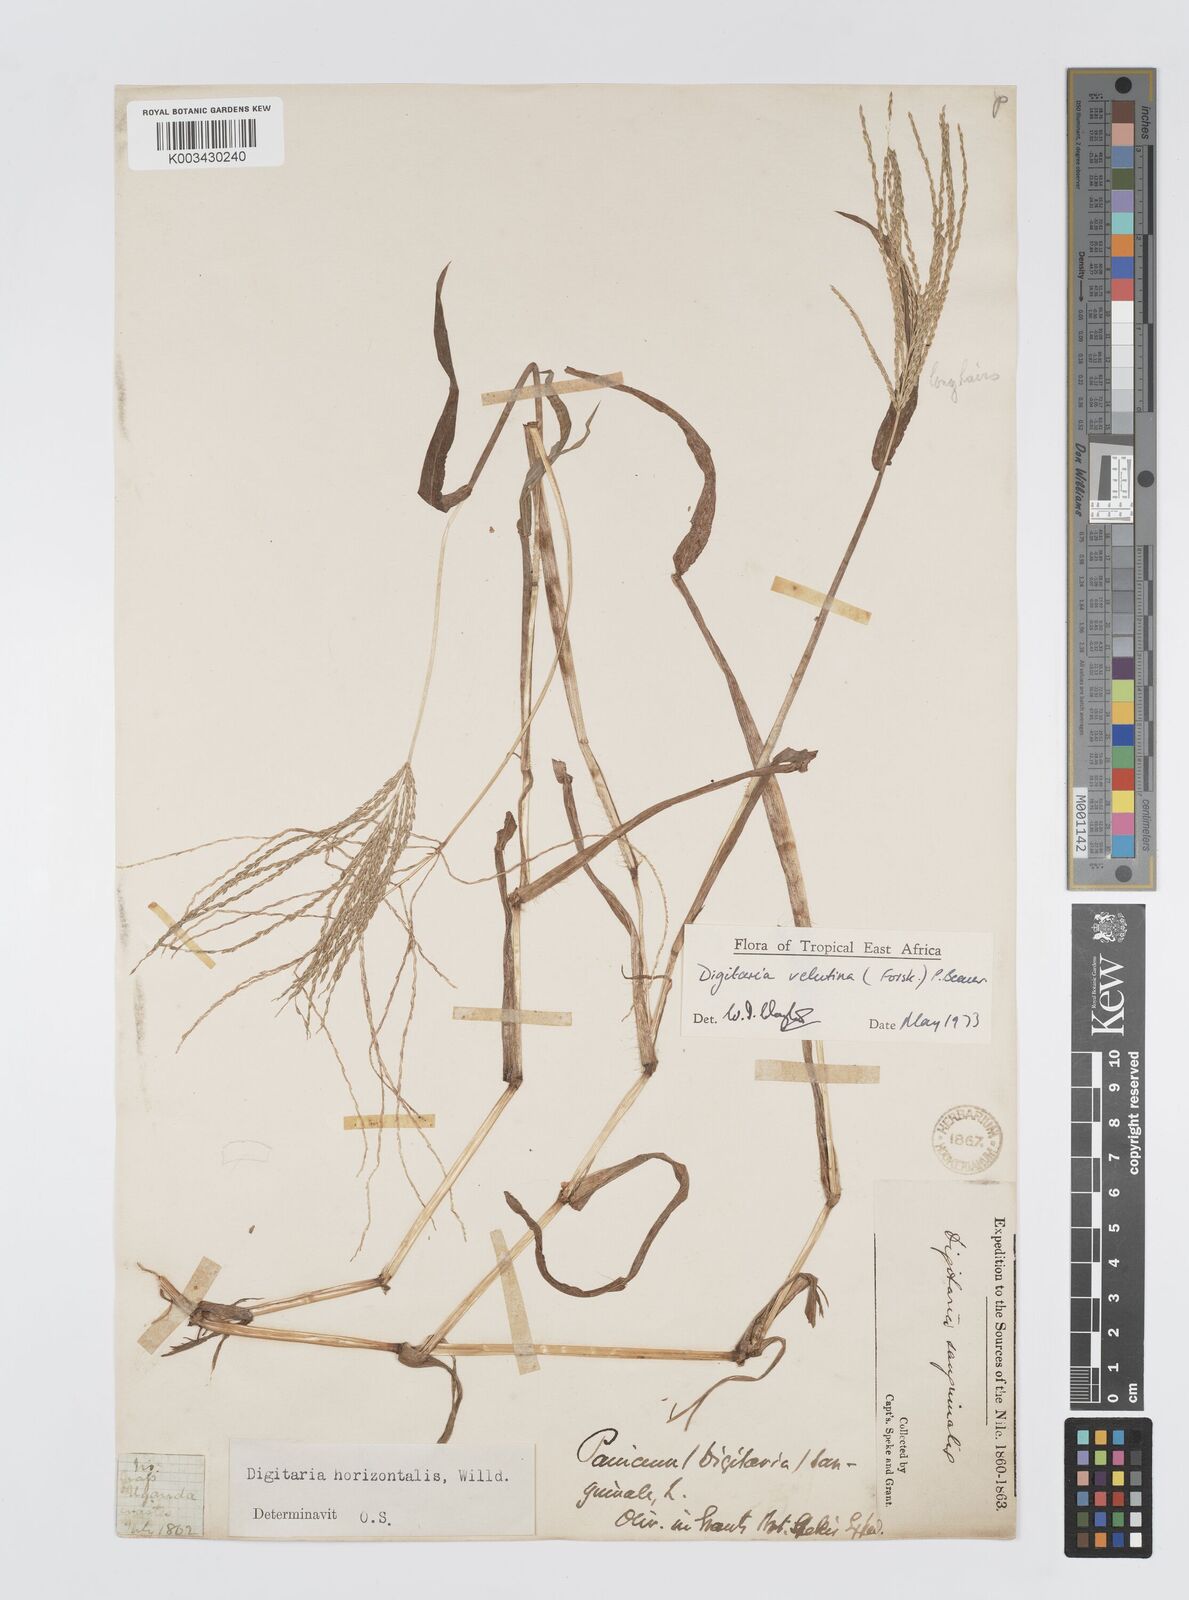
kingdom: Plantae
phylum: Tracheophyta
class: Liliopsida
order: Poales
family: Poaceae
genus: Digitaria
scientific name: Digitaria velutina
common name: Long-plume finger grass
